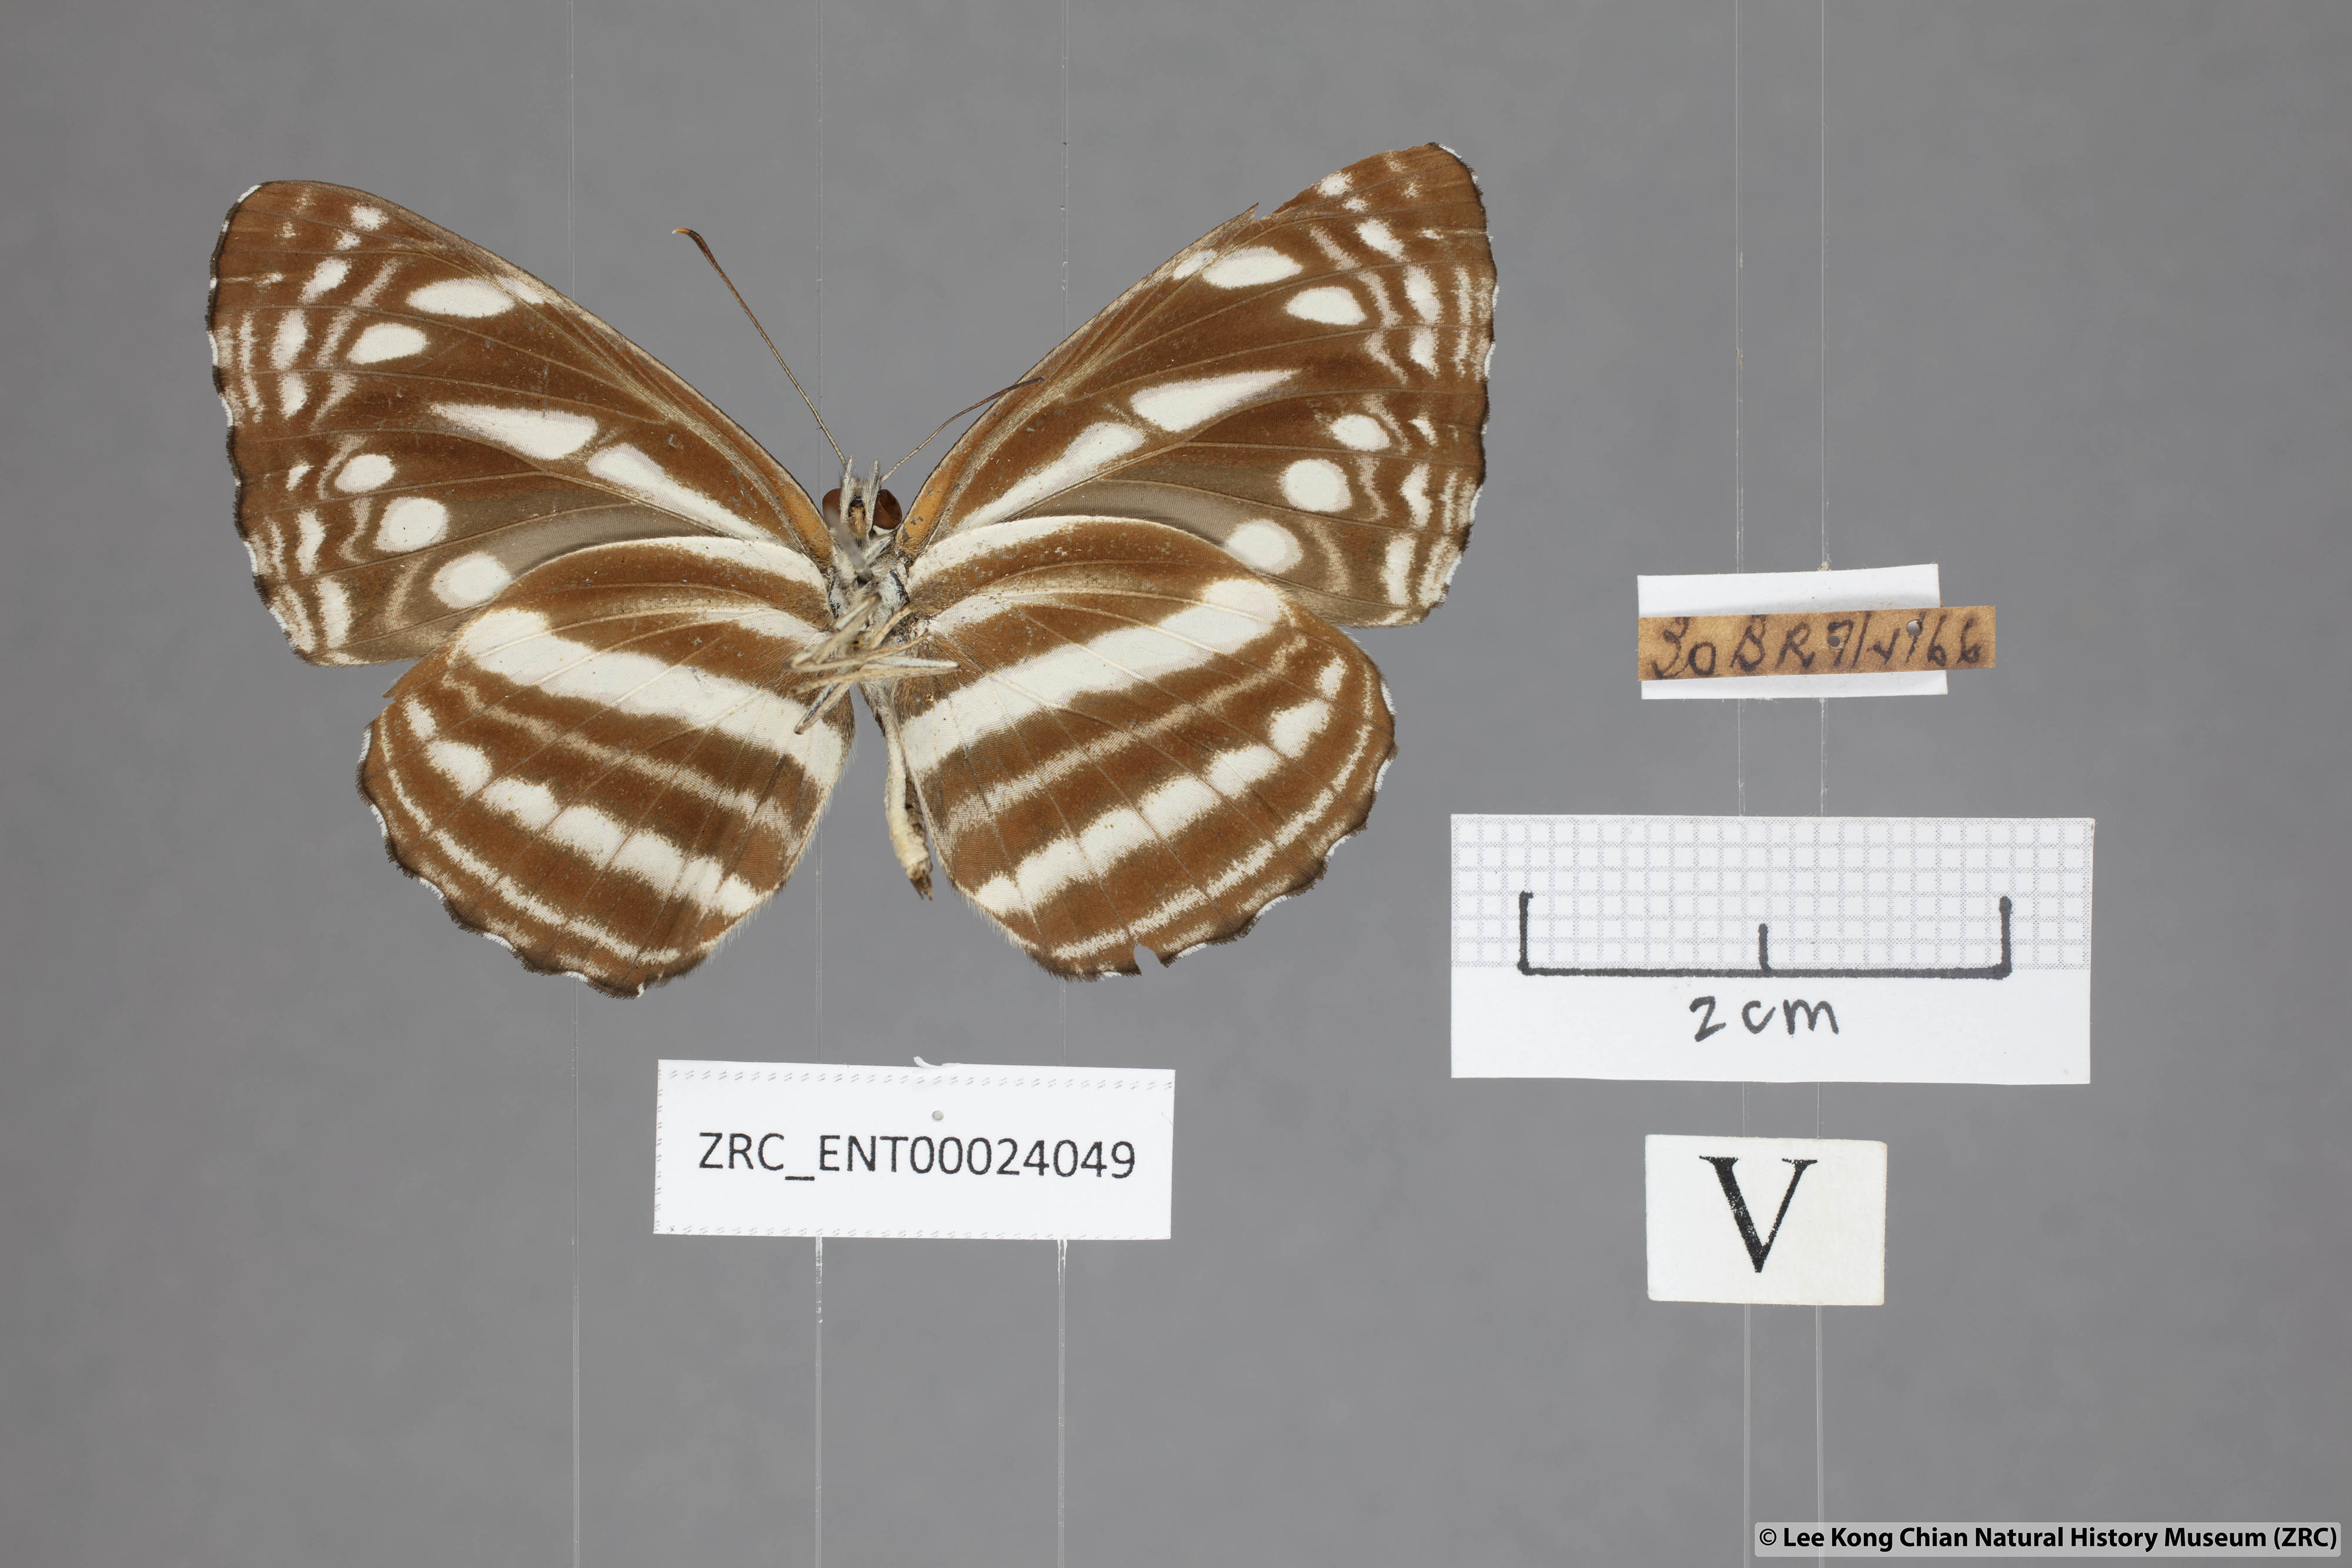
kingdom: Animalia
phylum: Arthropoda
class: Insecta
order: Lepidoptera
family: Nymphalidae
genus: Neptis
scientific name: Neptis nata
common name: Sullied brown sailer
